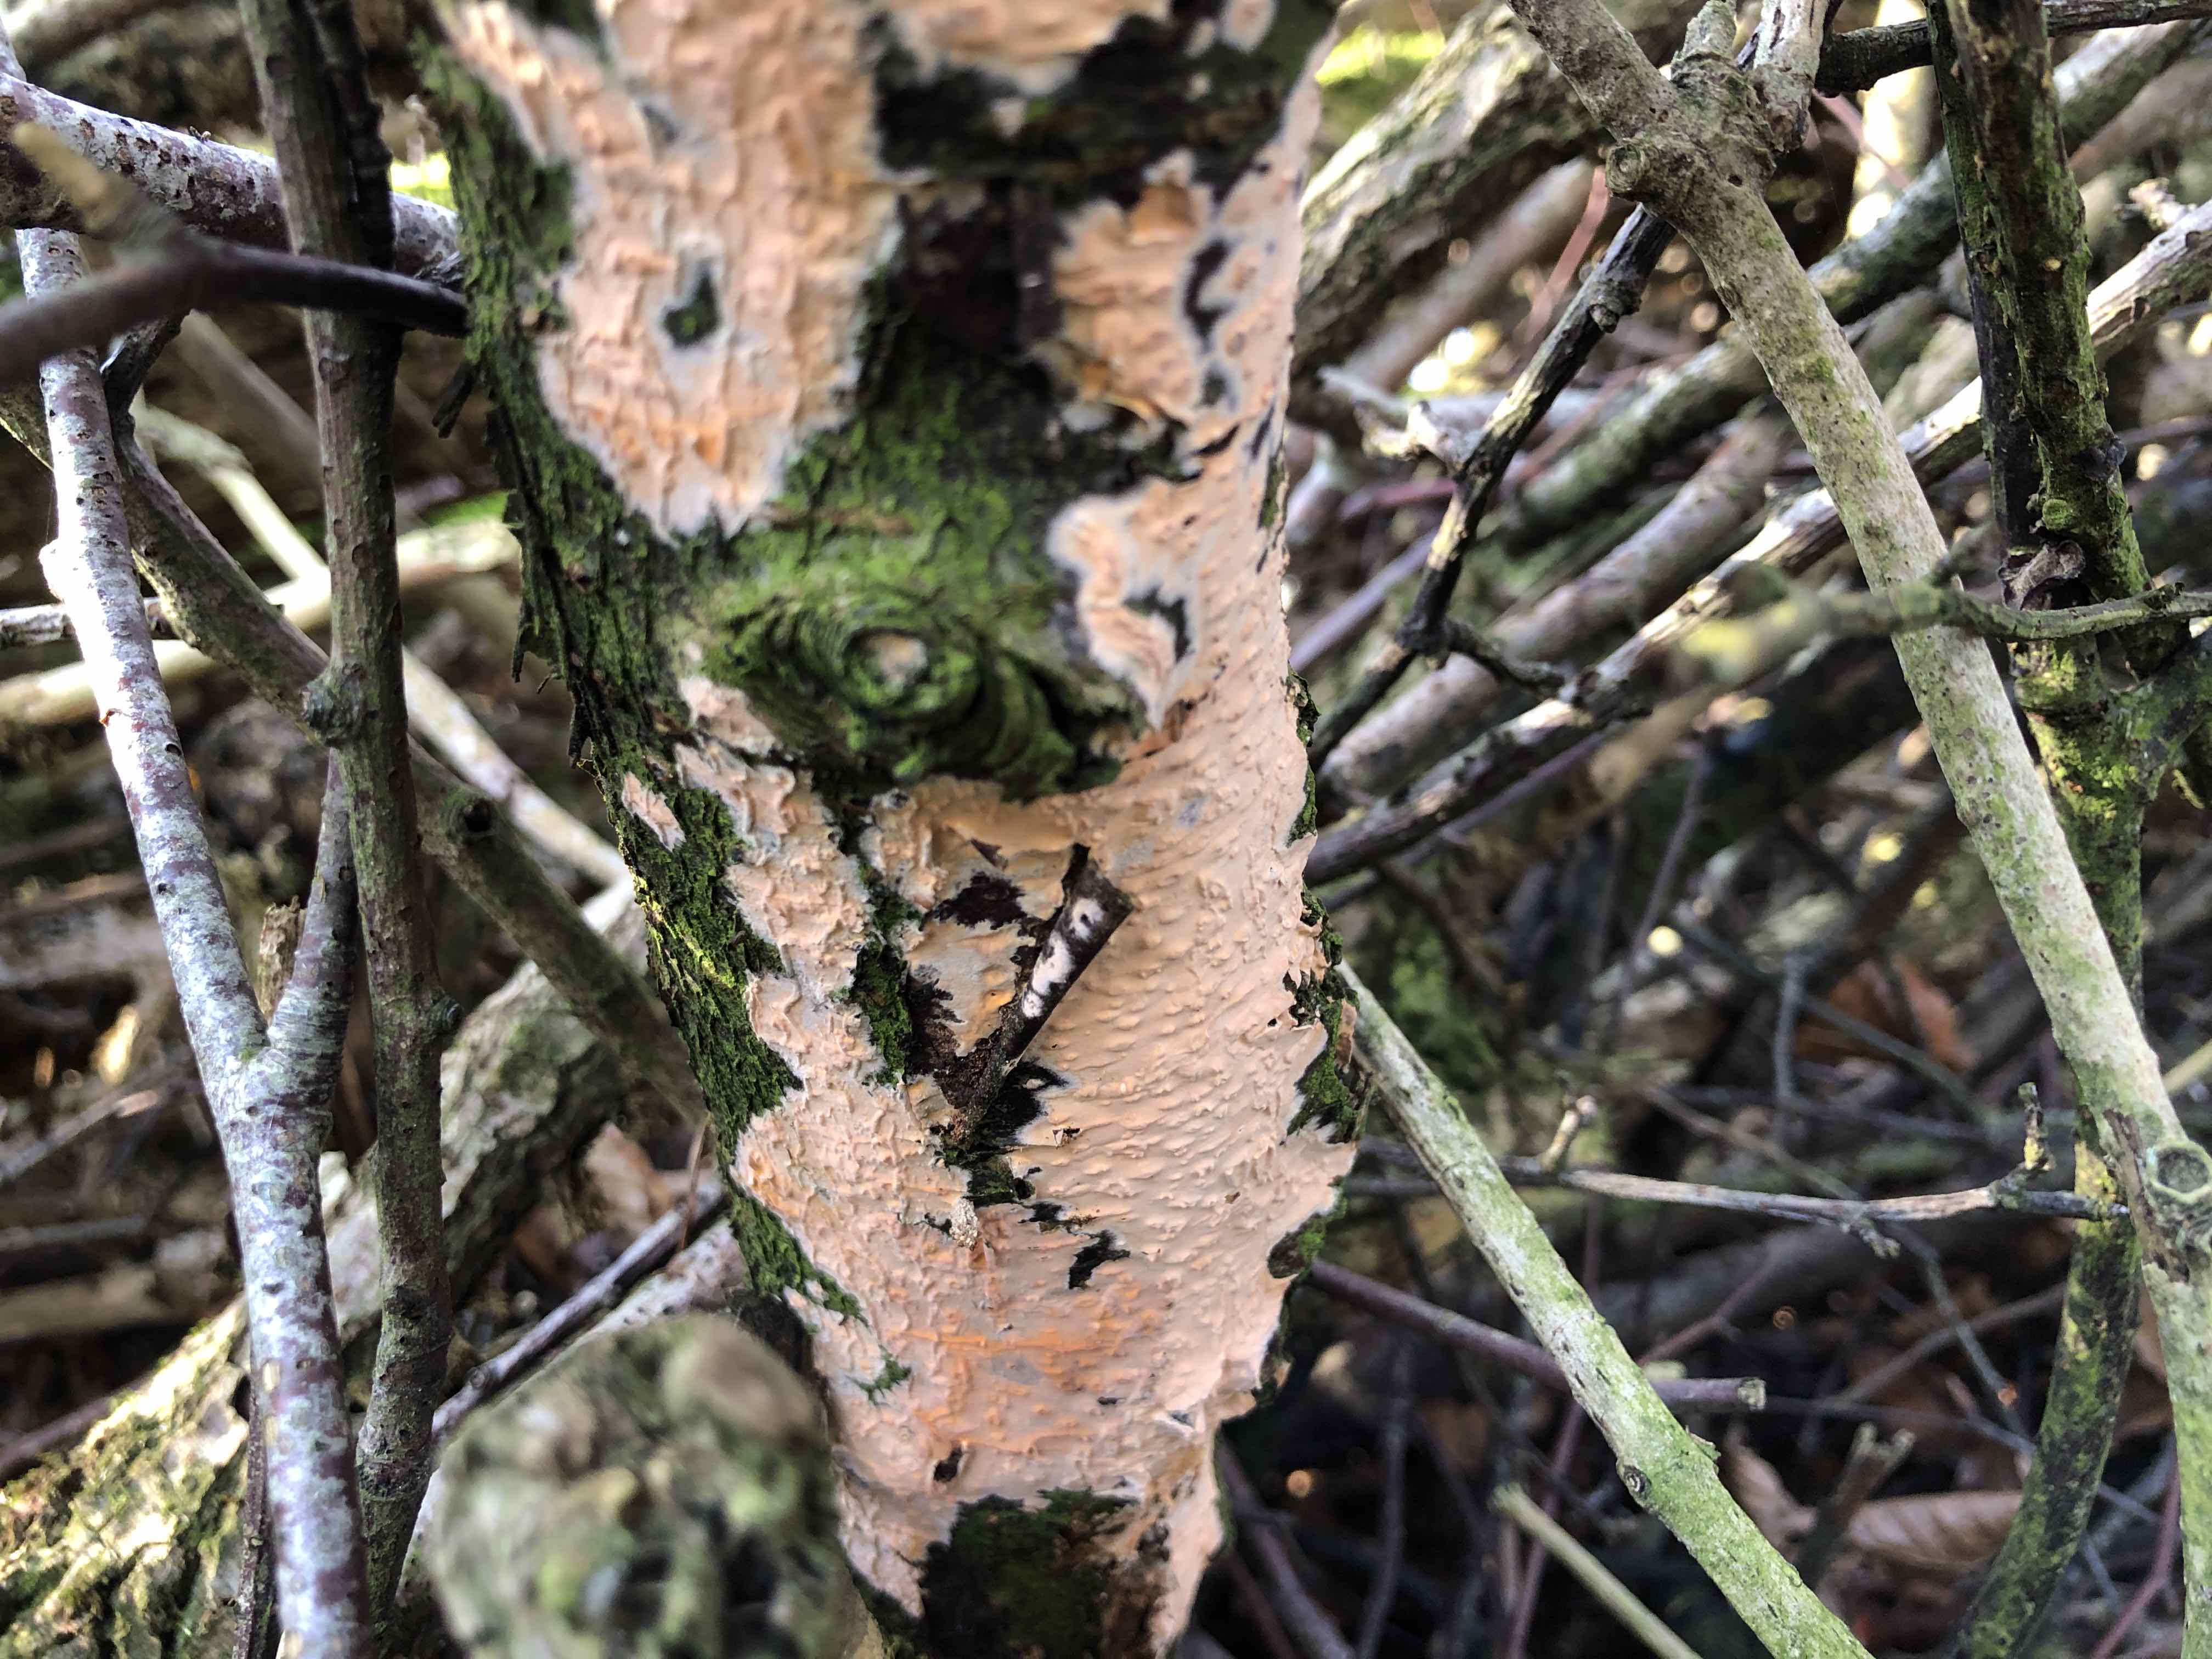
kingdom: Fungi
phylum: Basidiomycota
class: Agaricomycetes
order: Russulales
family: Peniophoraceae
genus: Peniophora
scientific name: Peniophora incarnata
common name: laksefarvet voksskind
